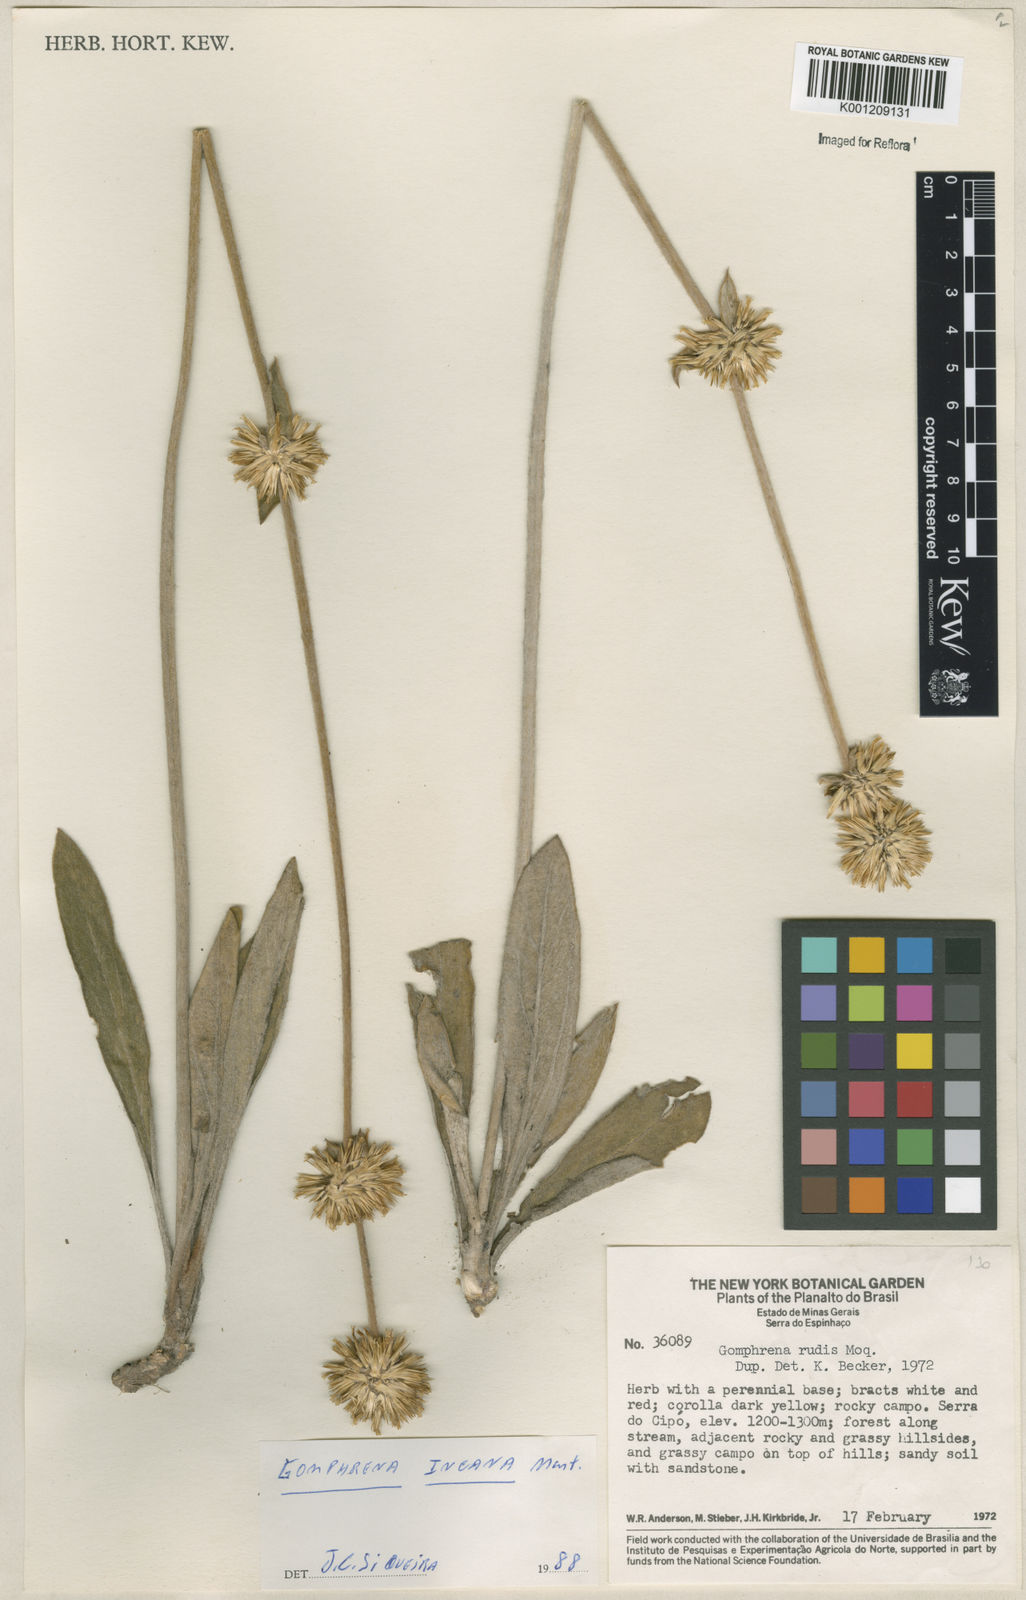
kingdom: Plantae
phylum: Tracheophyta
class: Magnoliopsida
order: Caryophyllales
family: Amaranthaceae
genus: Gomphrena
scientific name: Gomphrena incana
